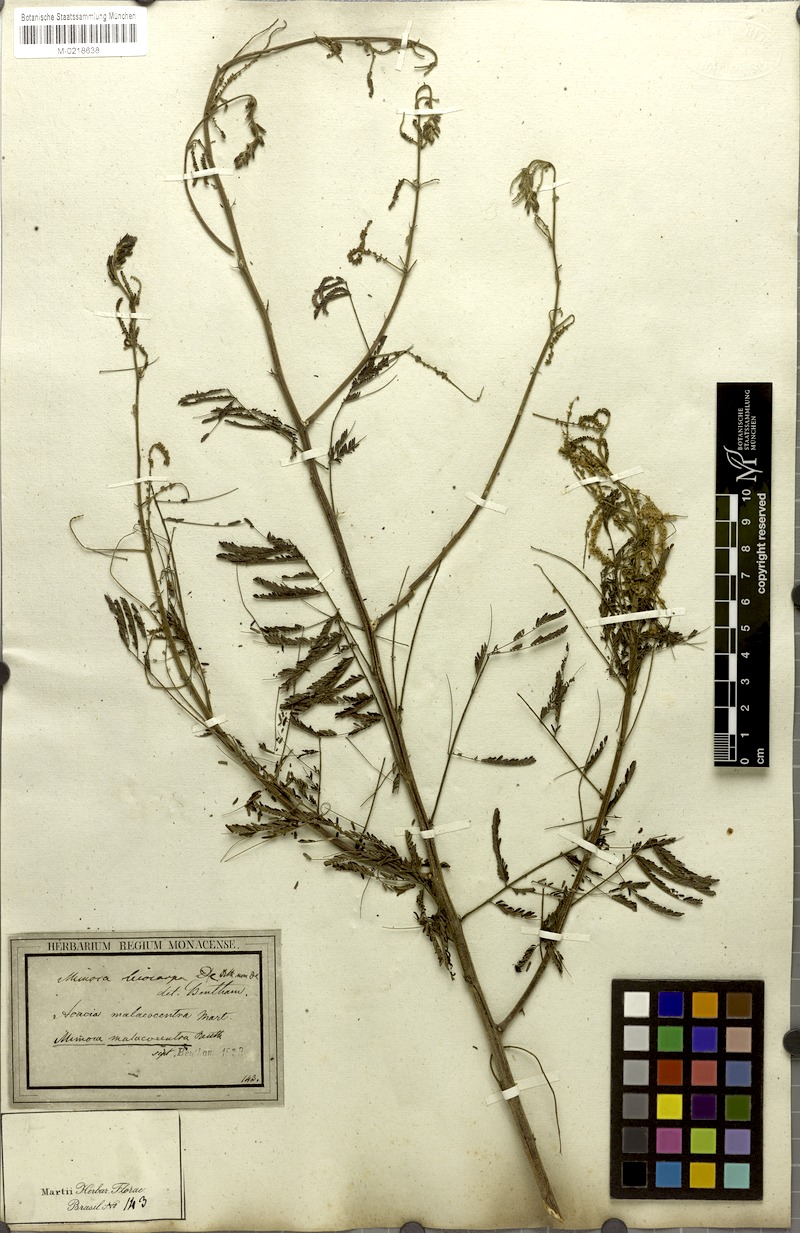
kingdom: Plantae
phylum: Tracheophyta
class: Magnoliopsida
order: Fabales
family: Fabaceae
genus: Mimosa
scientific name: Mimosa arenosa
